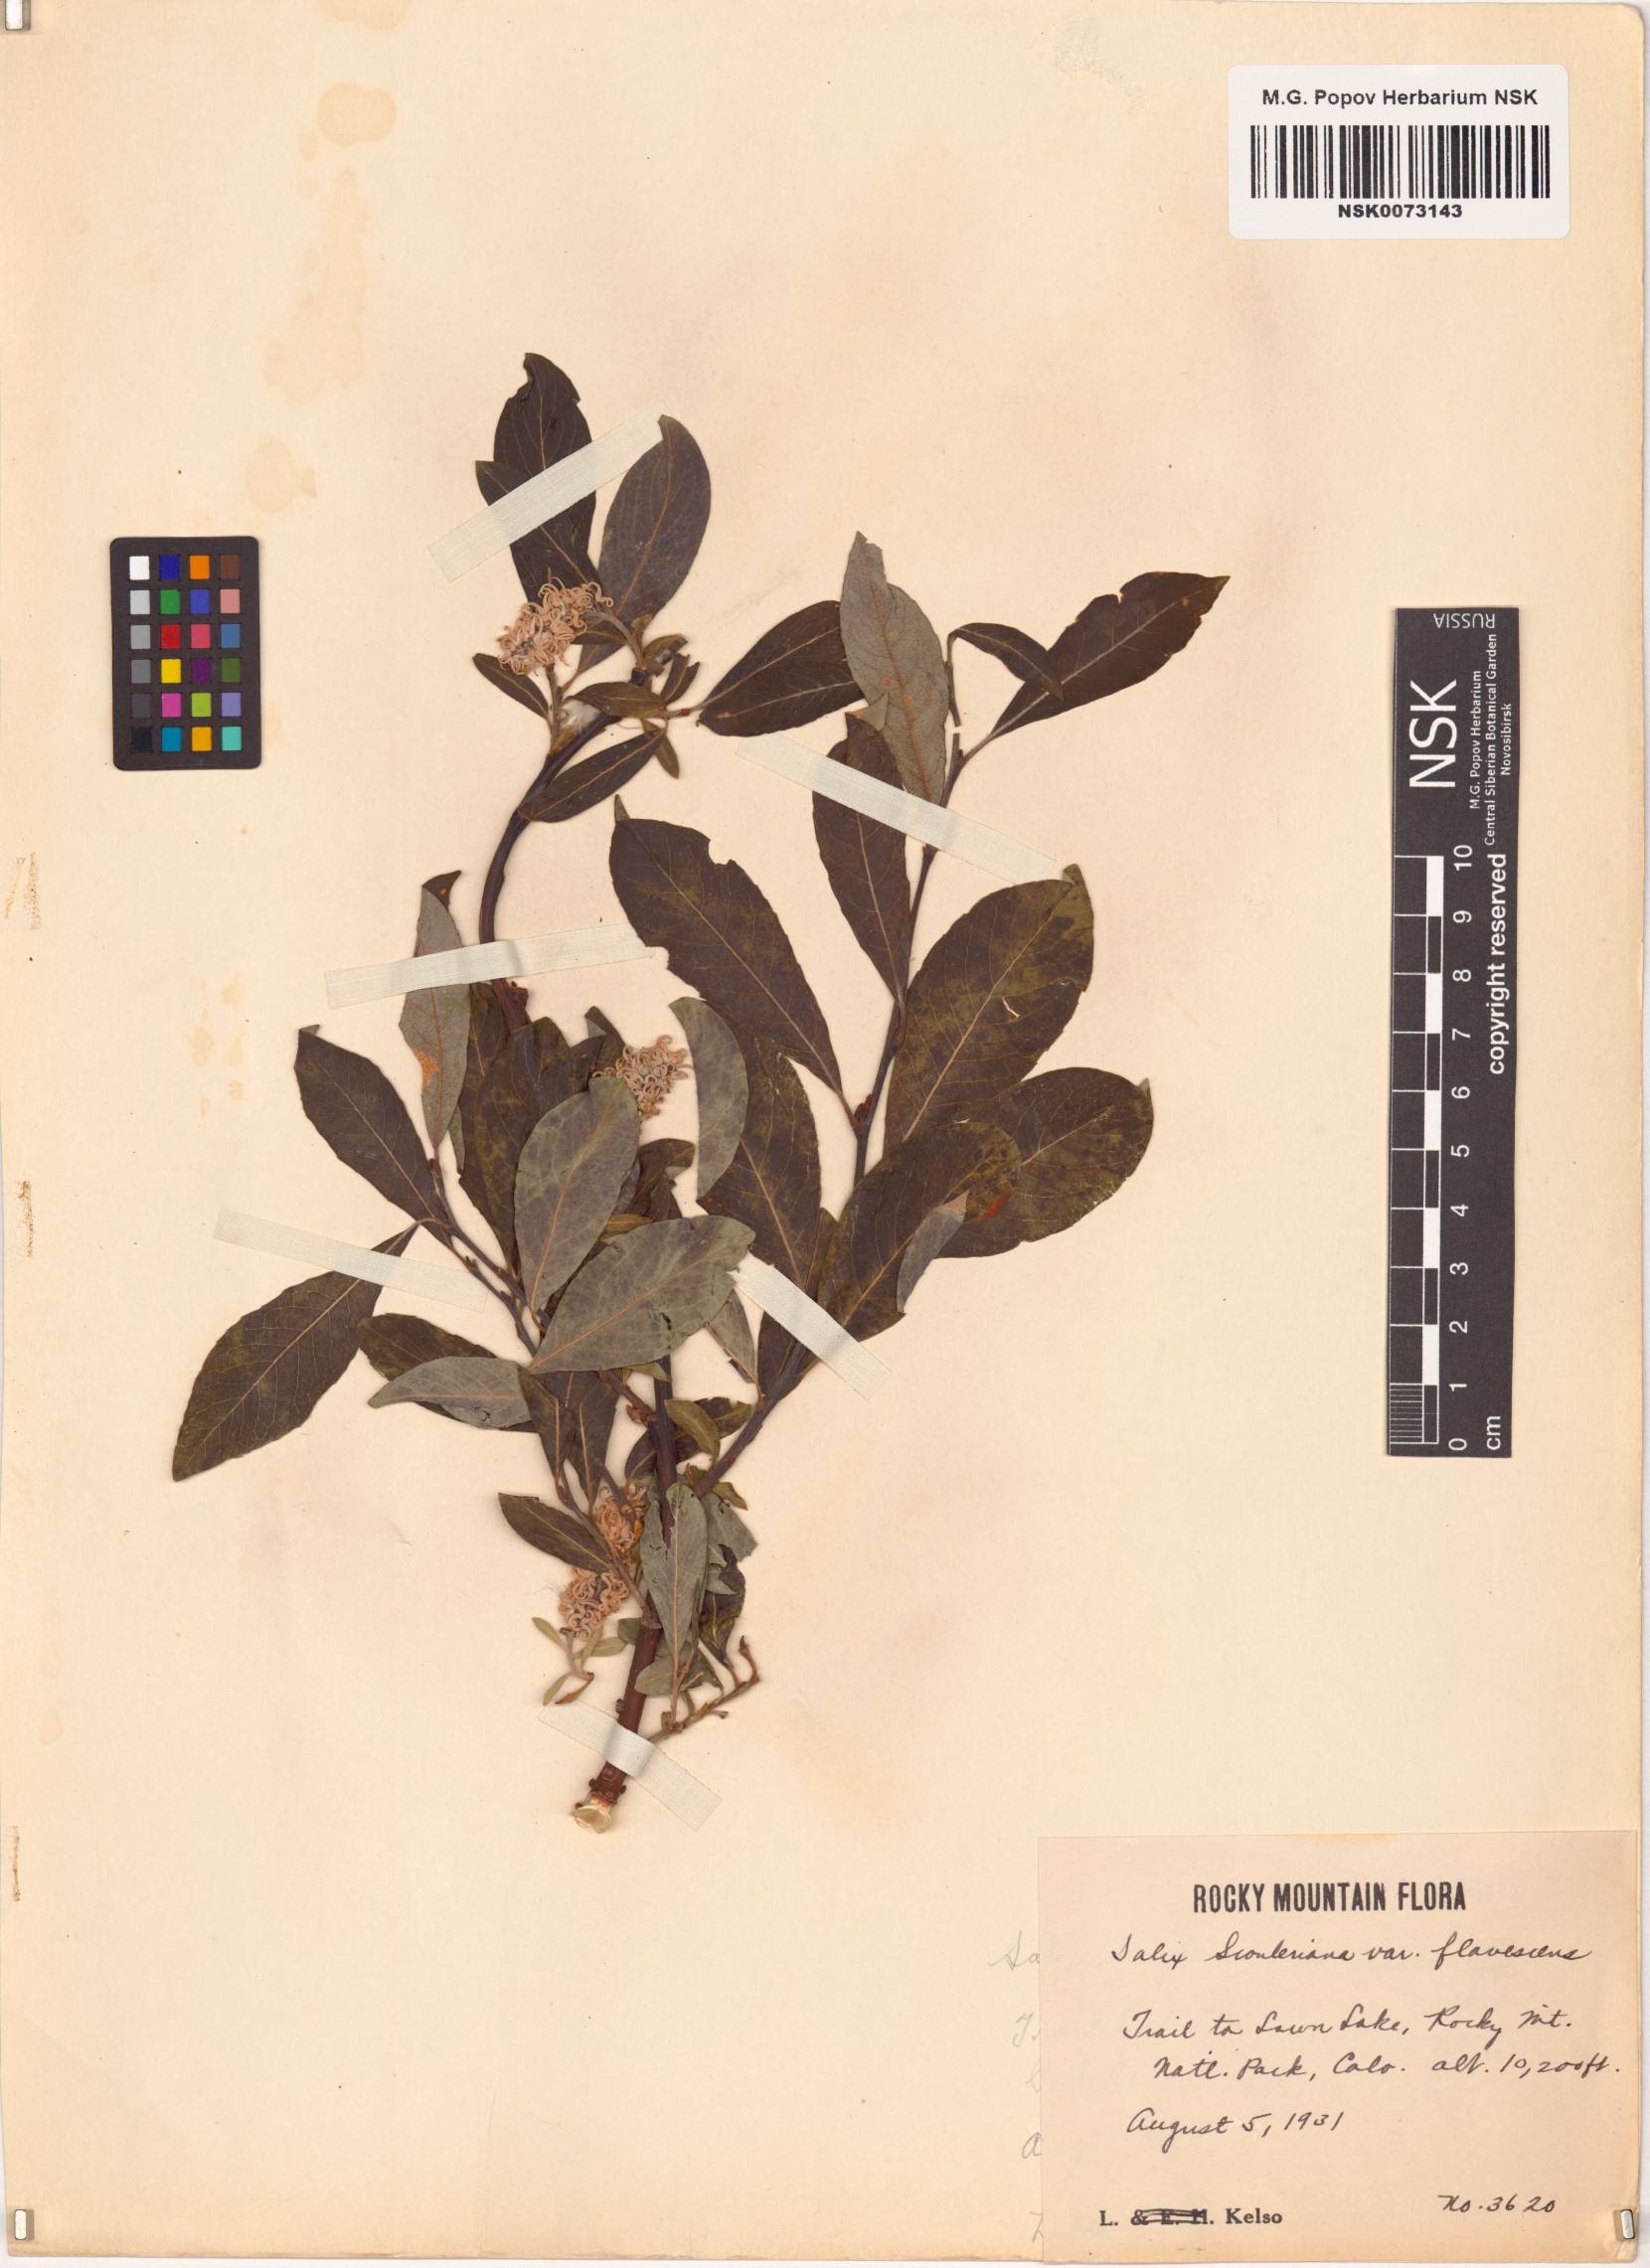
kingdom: Plantae
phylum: Tracheophyta
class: Magnoliopsida
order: Malpighiales
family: Salicaceae
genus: Salix
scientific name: Salix scouleriana
